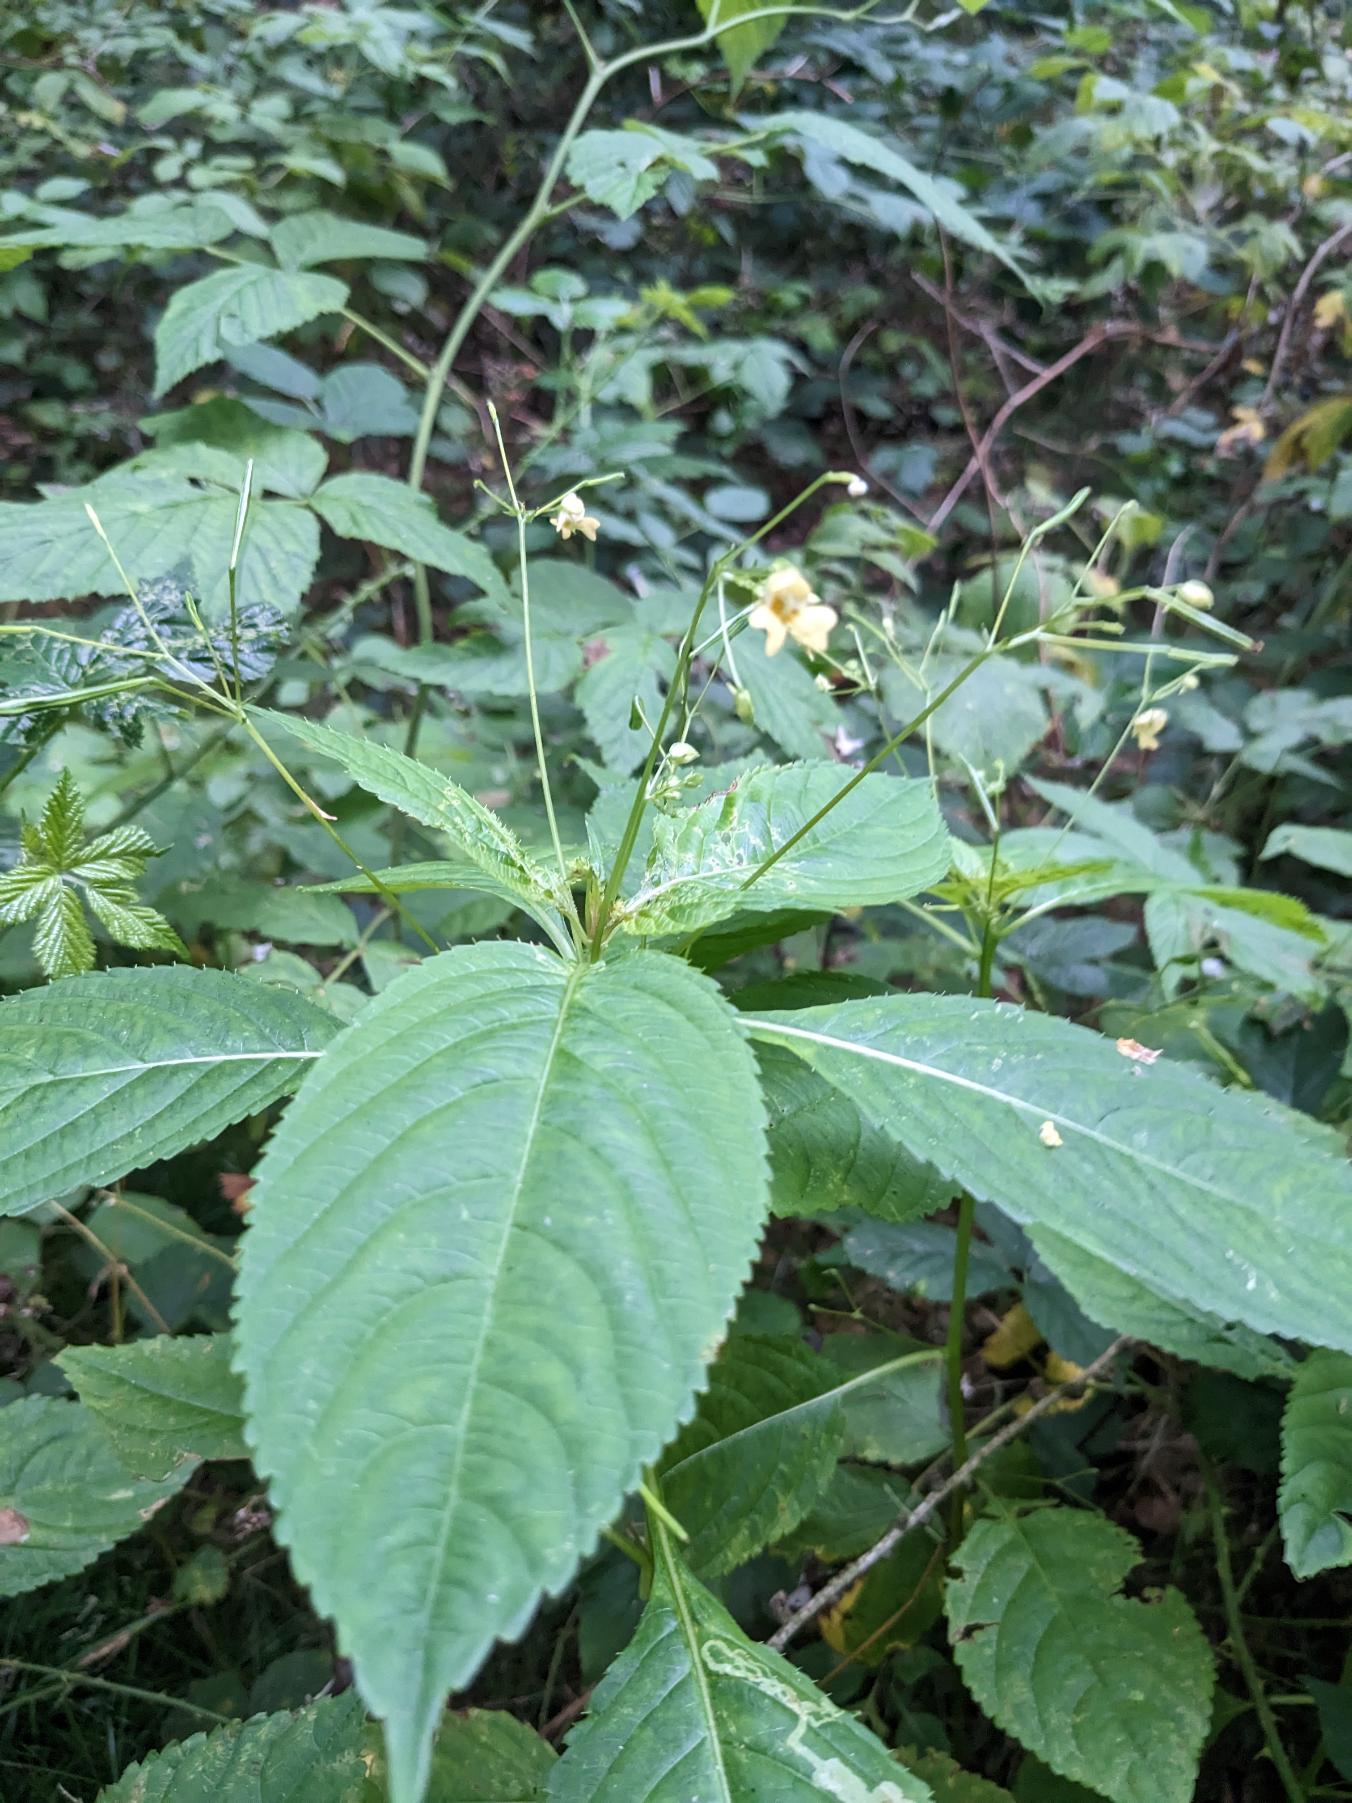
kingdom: Plantae
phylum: Tracheophyta
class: Magnoliopsida
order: Ericales
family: Balsaminaceae
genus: Impatiens
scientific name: Impatiens parviflora
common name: Småblomstret balsamin
